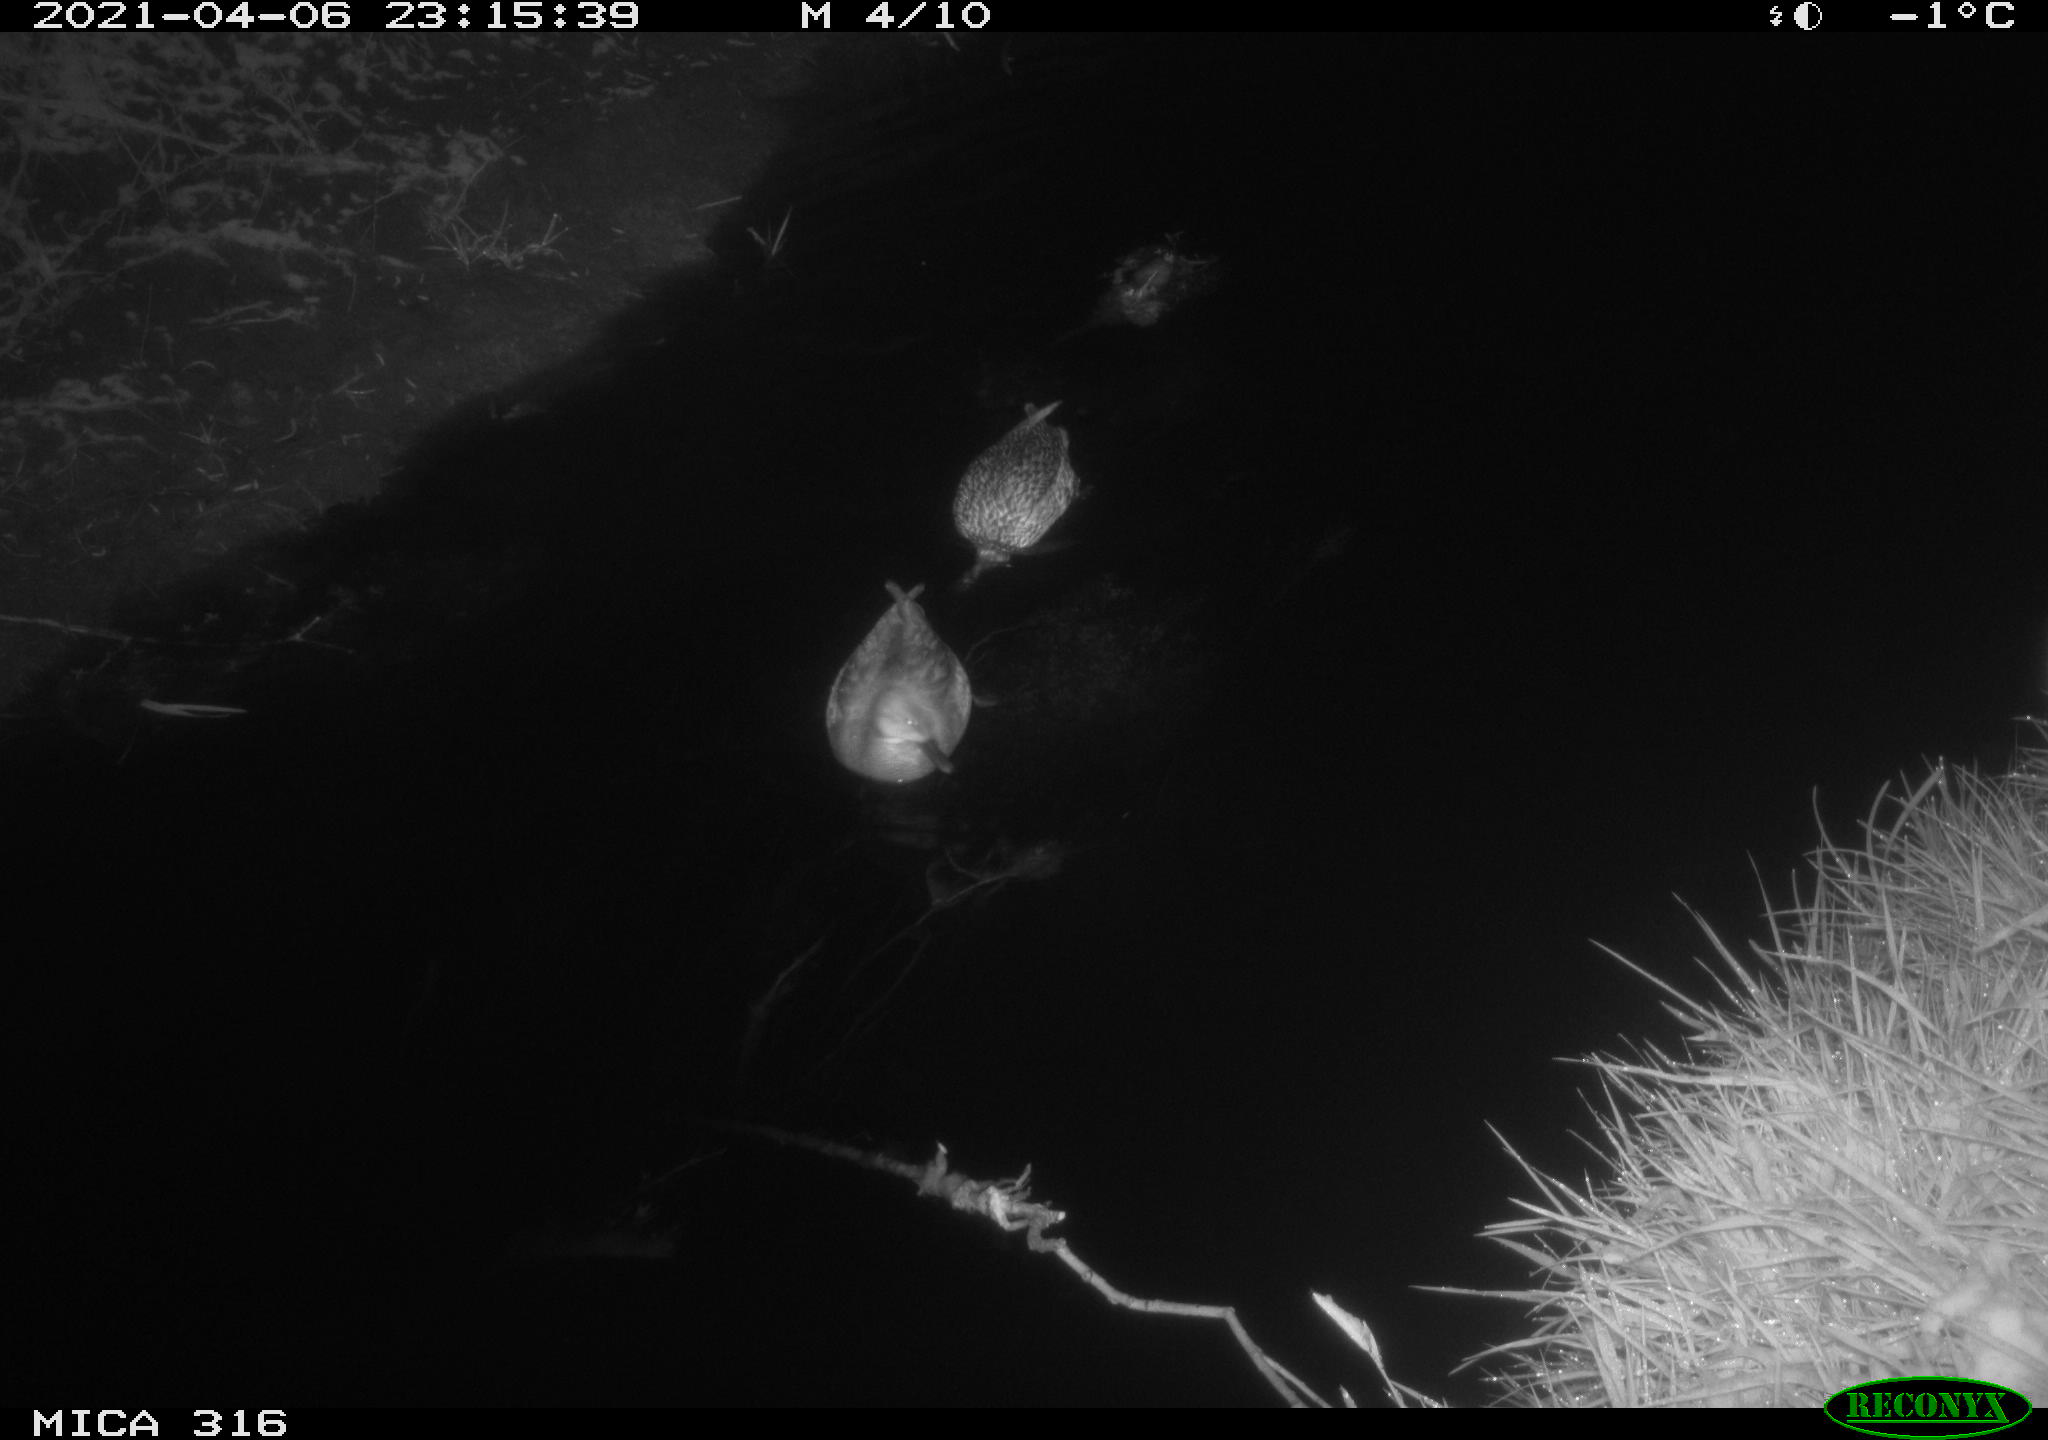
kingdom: Animalia
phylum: Chordata
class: Aves
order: Anseriformes
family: Anatidae
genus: Mareca
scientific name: Mareca strepera
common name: Gadwall
